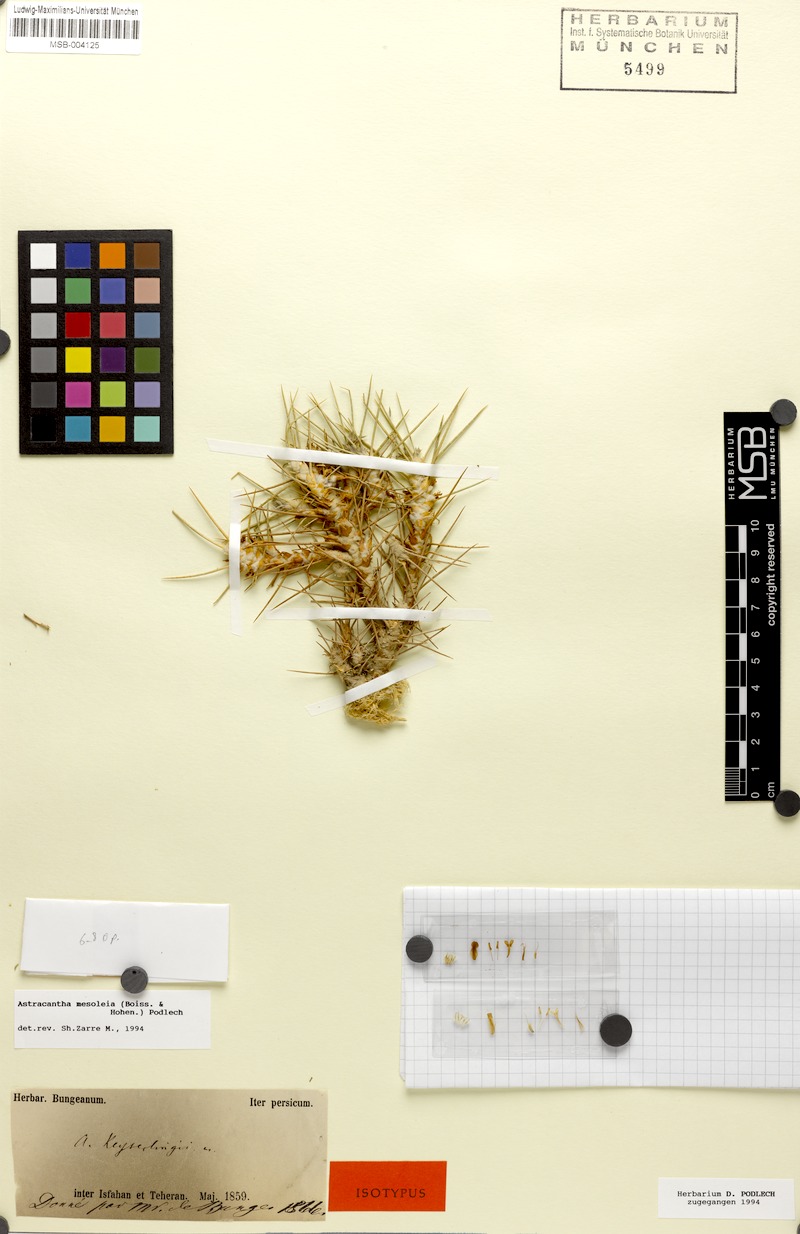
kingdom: Plantae
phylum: Tracheophyta
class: Magnoliopsida
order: Fabales
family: Fabaceae
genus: Astragalus
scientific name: Astragalus verus
